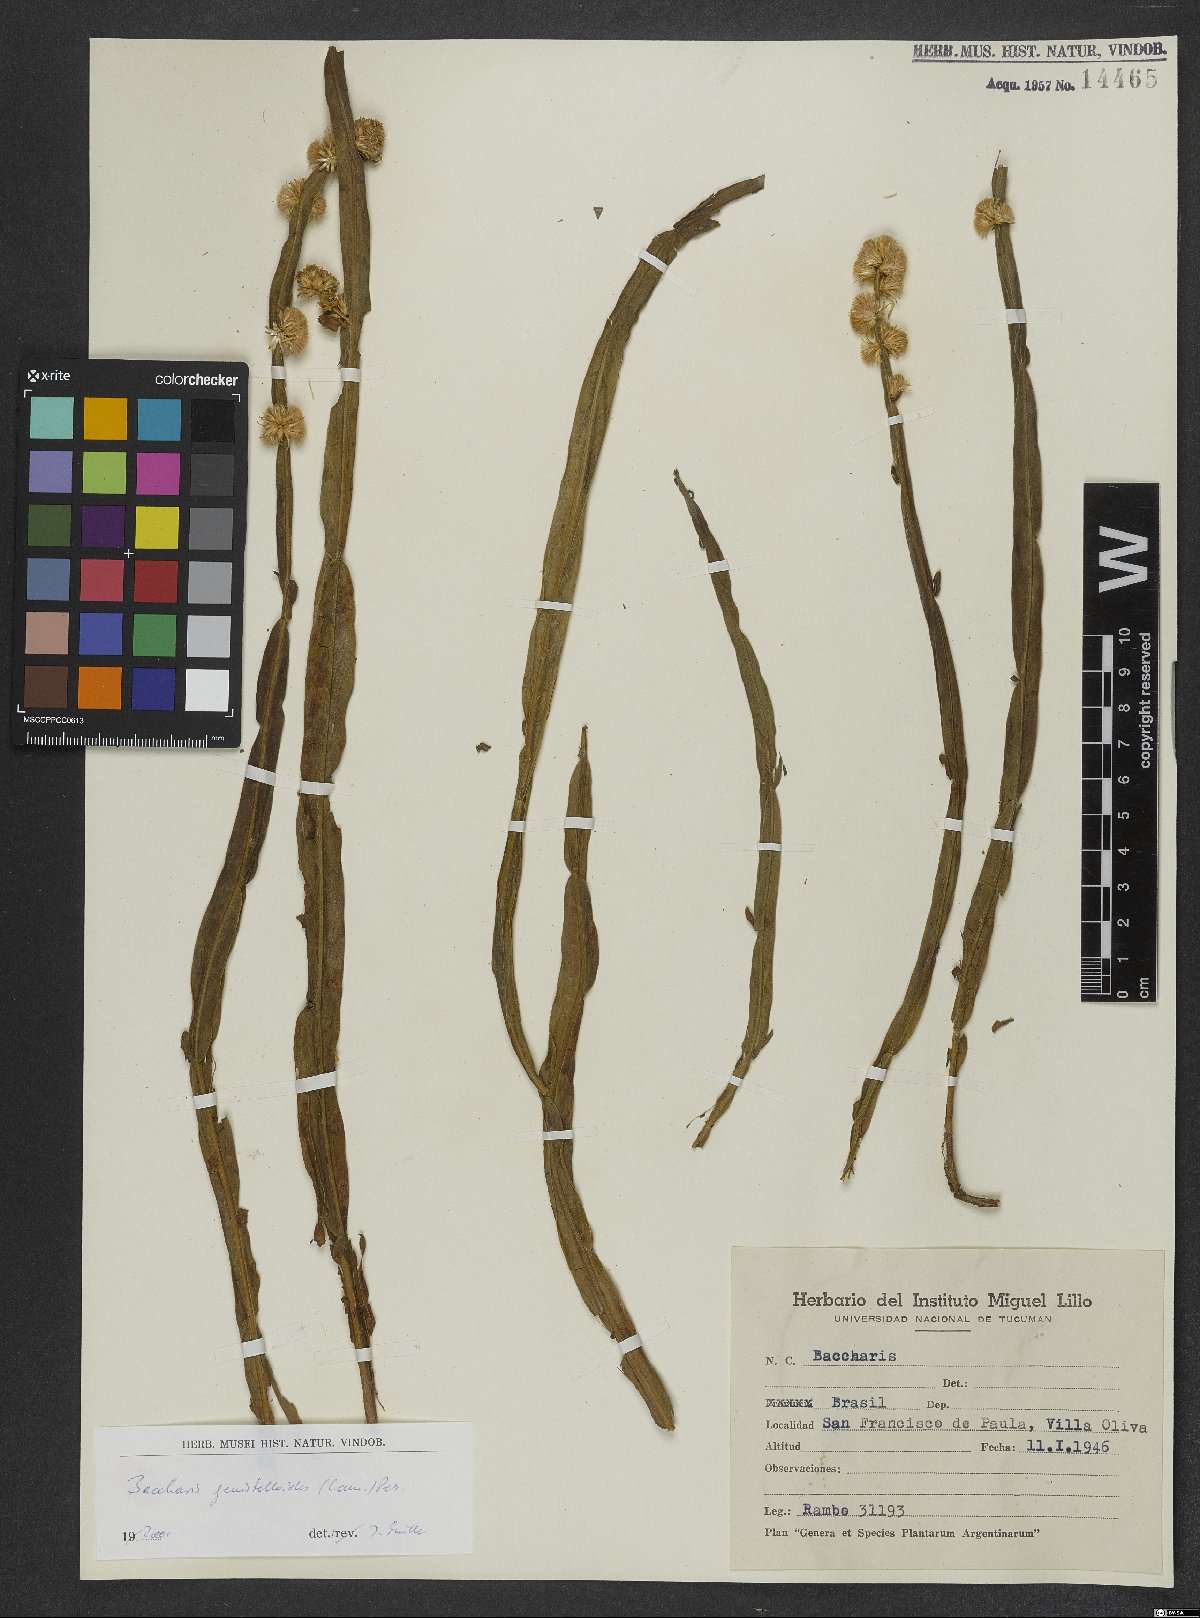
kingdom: Plantae
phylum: Tracheophyta
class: Magnoliopsida
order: Asterales
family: Asteraceae
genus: Baccharis
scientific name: Baccharis genistelloides
